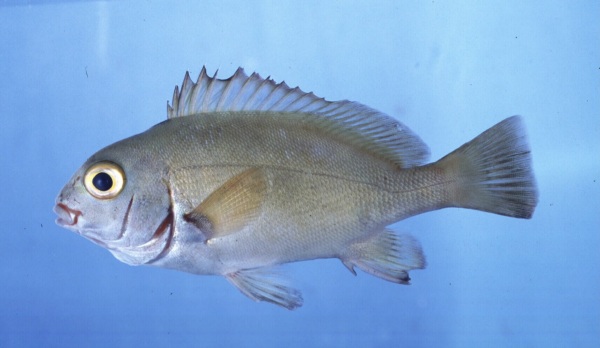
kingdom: Animalia
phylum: Chordata
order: Perciformes
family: Haemulidae
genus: Plectorhinchus
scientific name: Plectorhinchus schotaf
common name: Minstrel sweetlips
